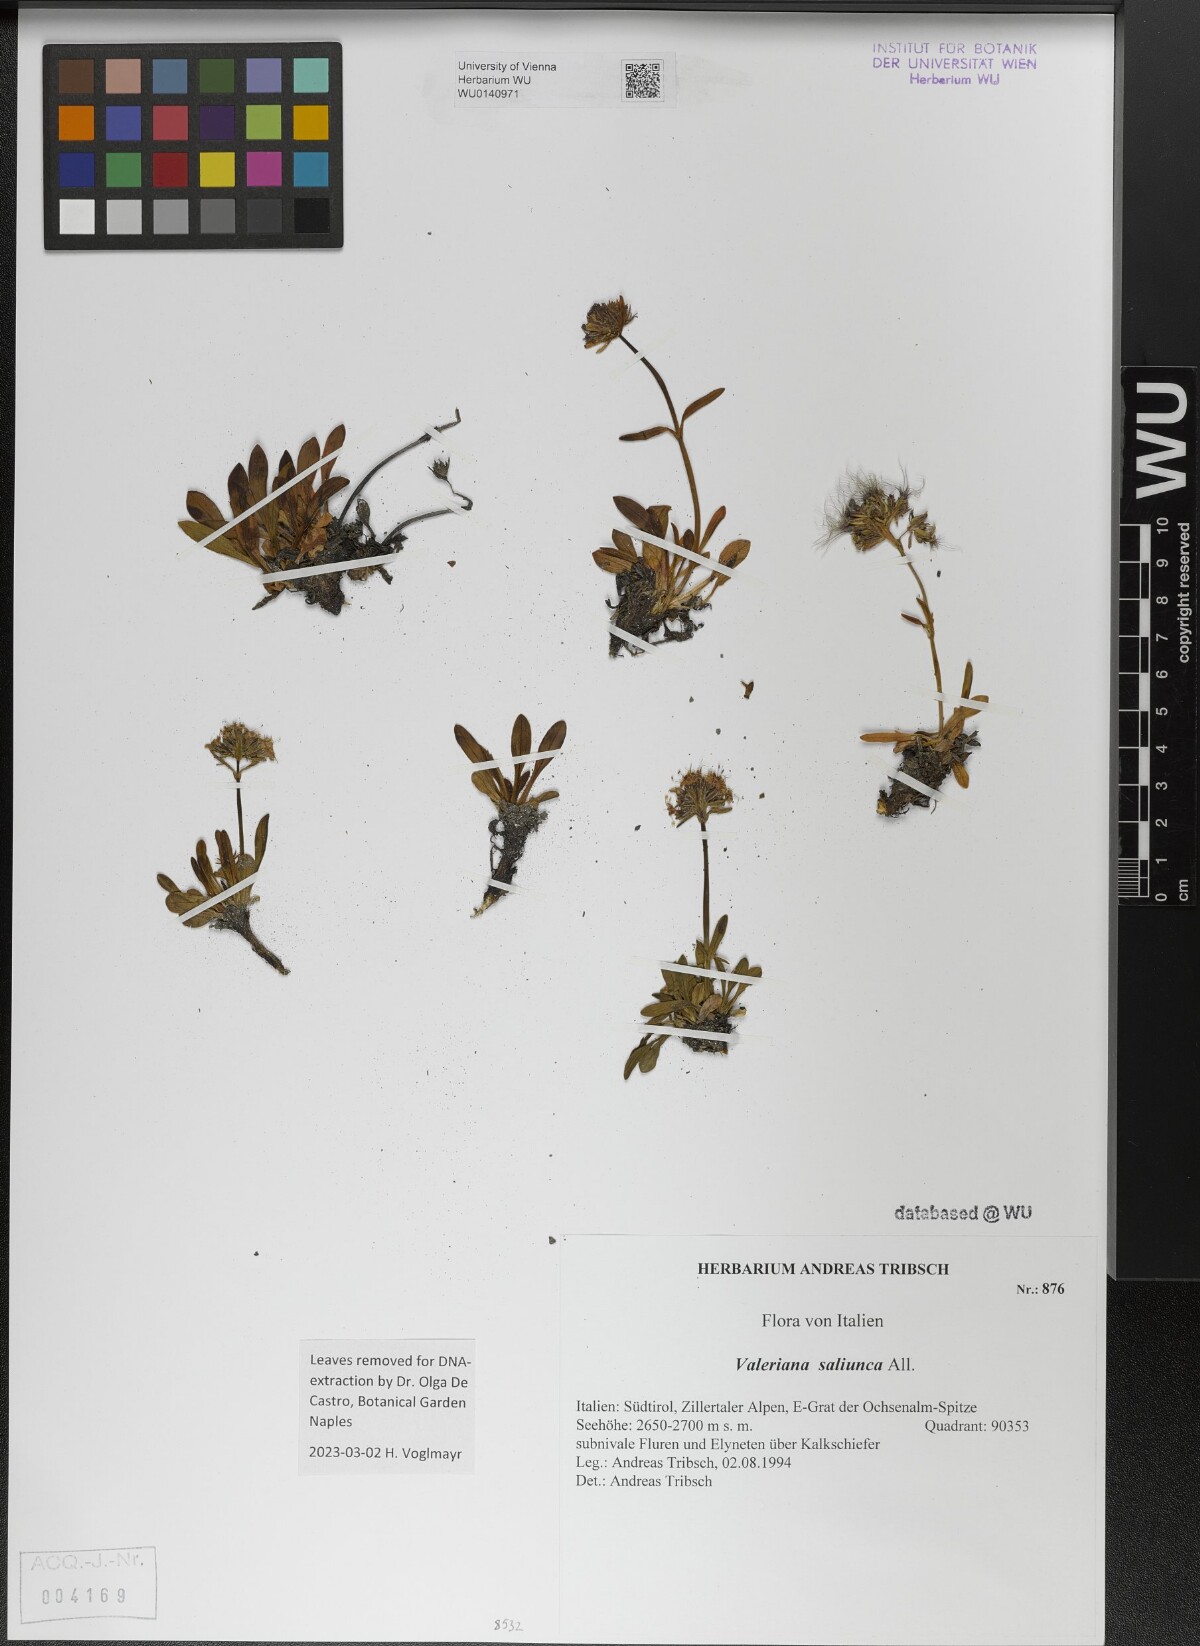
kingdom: Plantae
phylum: Tracheophyta
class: Magnoliopsida
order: Dipsacales
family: Caprifoliaceae
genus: Valeriana
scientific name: Valeriana saliunca
